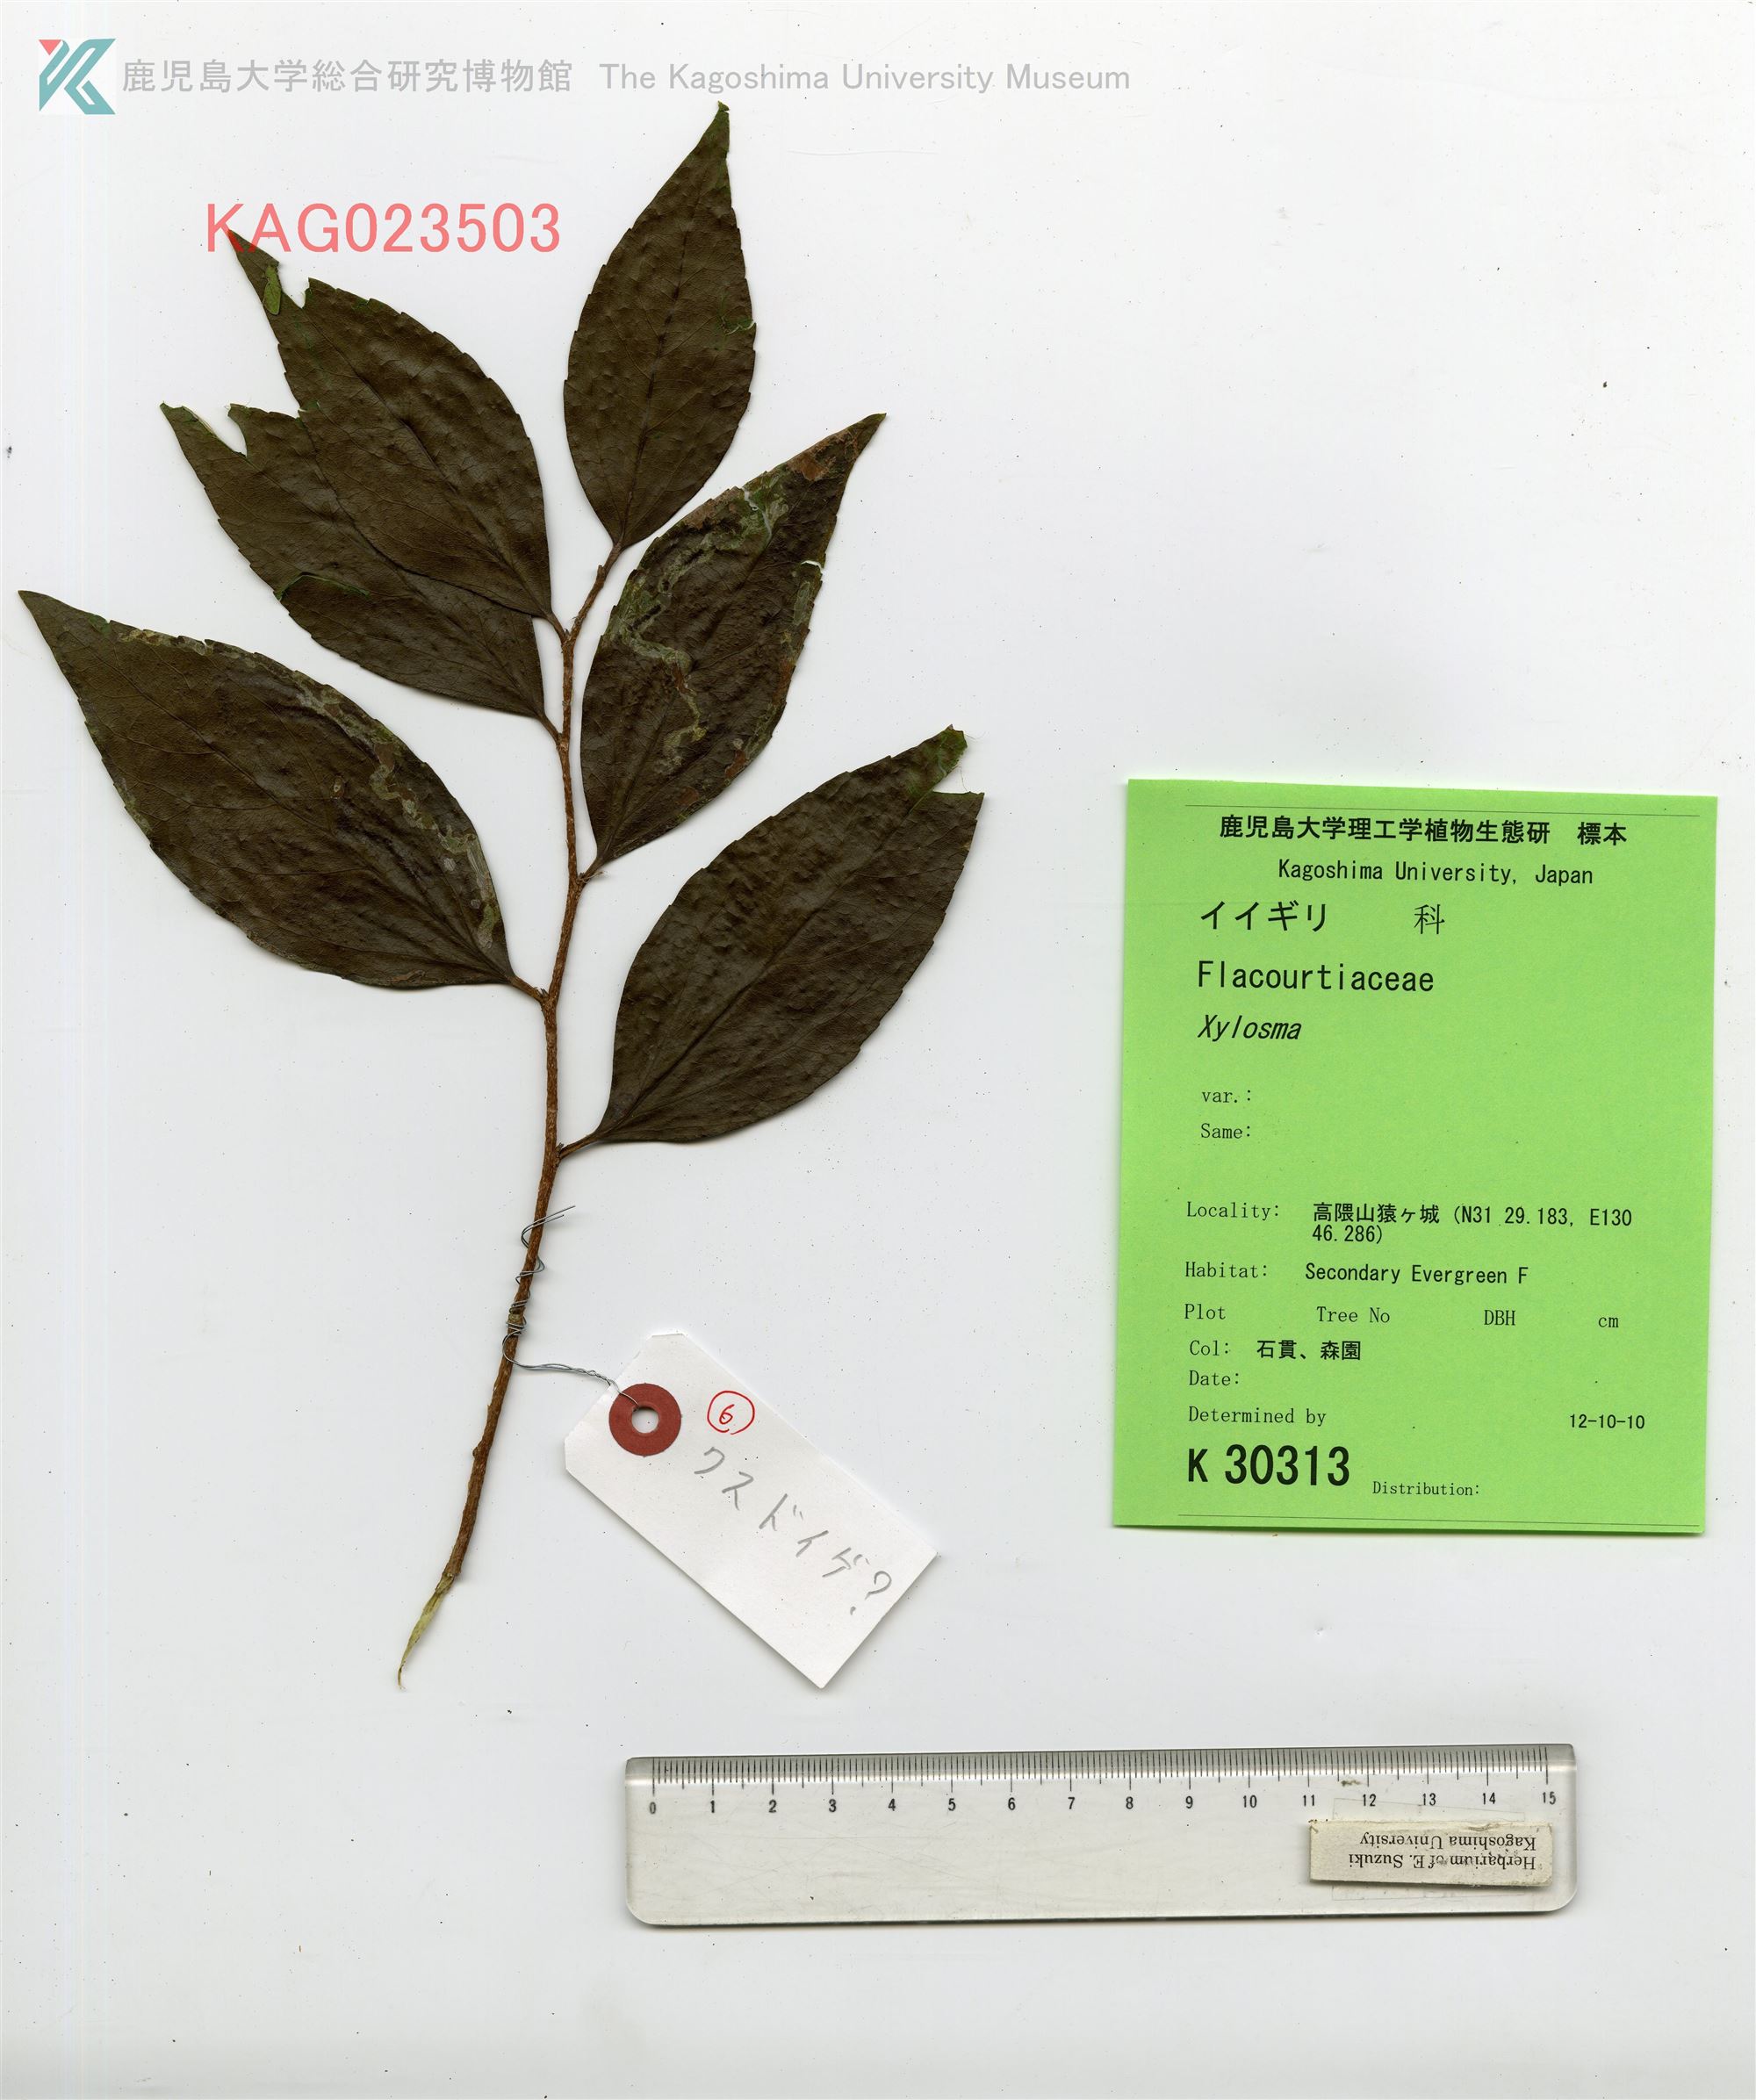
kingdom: Plantae
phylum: Tracheophyta
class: Magnoliopsida
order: Malpighiales
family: Salicaceae
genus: Xylosma
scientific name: Xylosma racemosum
